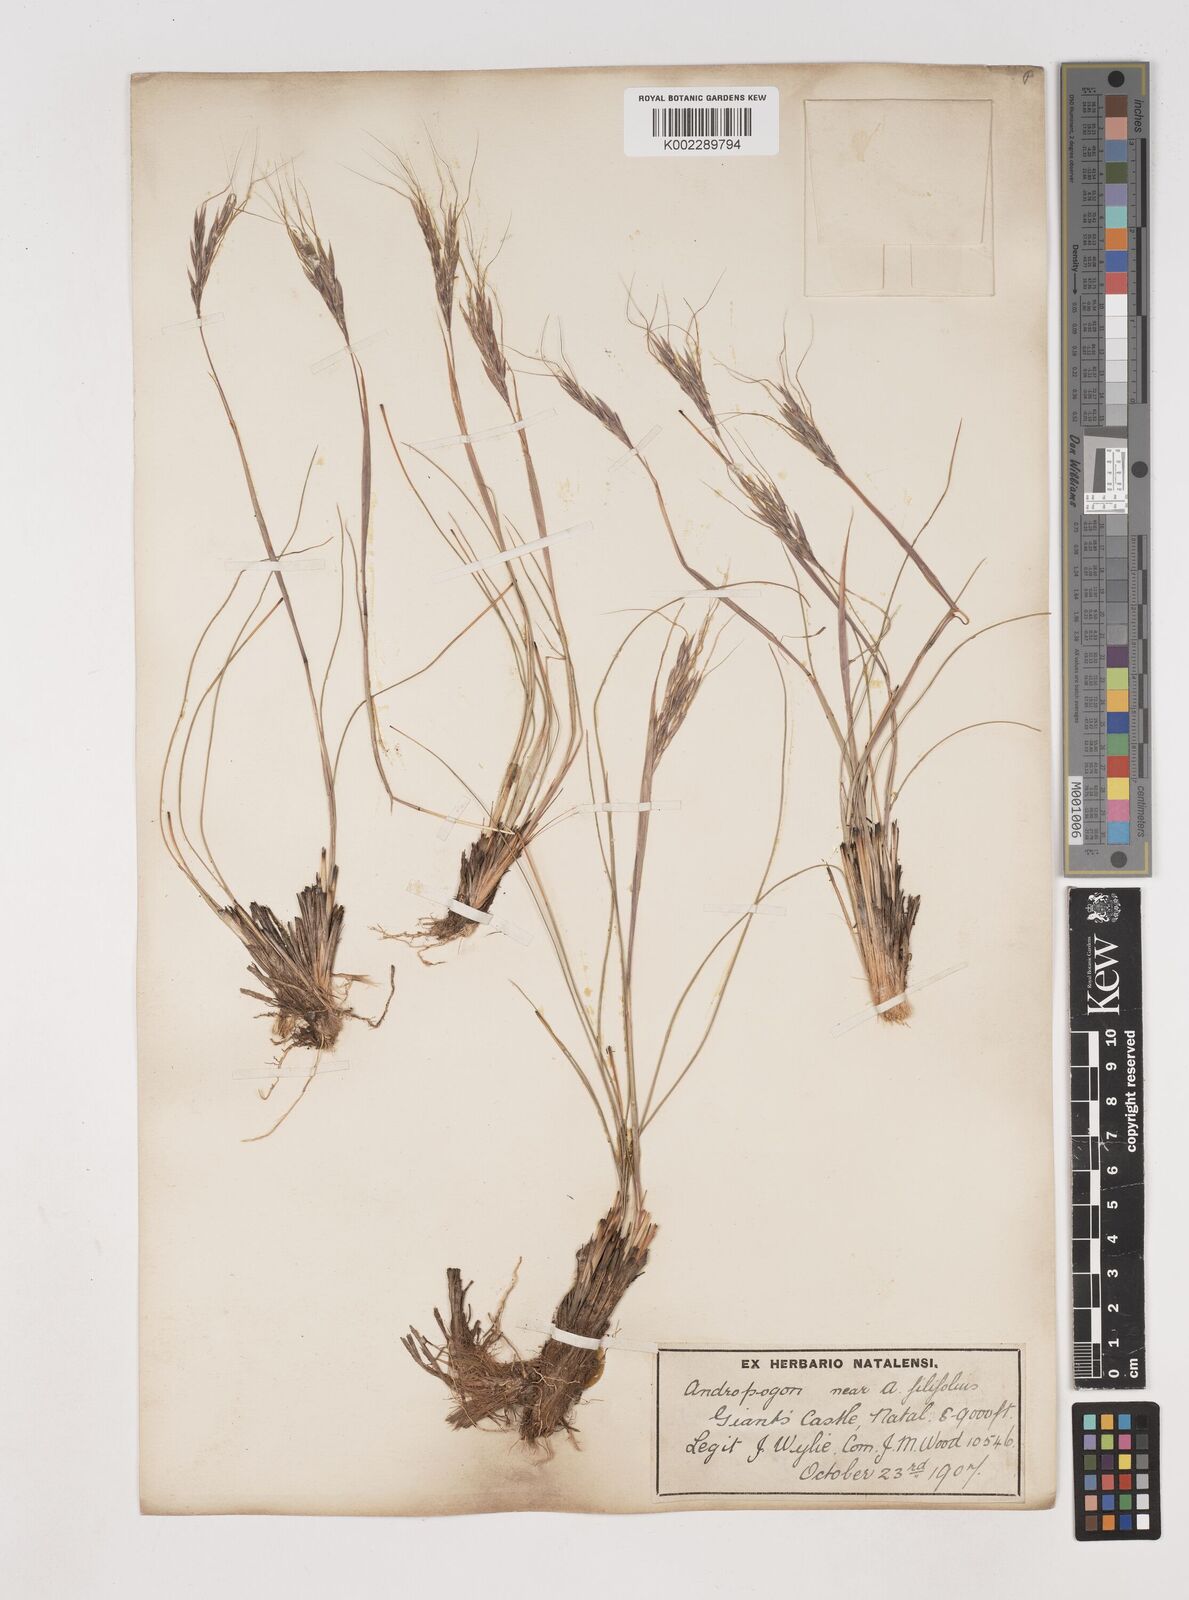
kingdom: Plantae
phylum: Tracheophyta
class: Liliopsida
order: Poales
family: Poaceae
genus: Diheteropogon
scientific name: Diheteropogon filifolius
